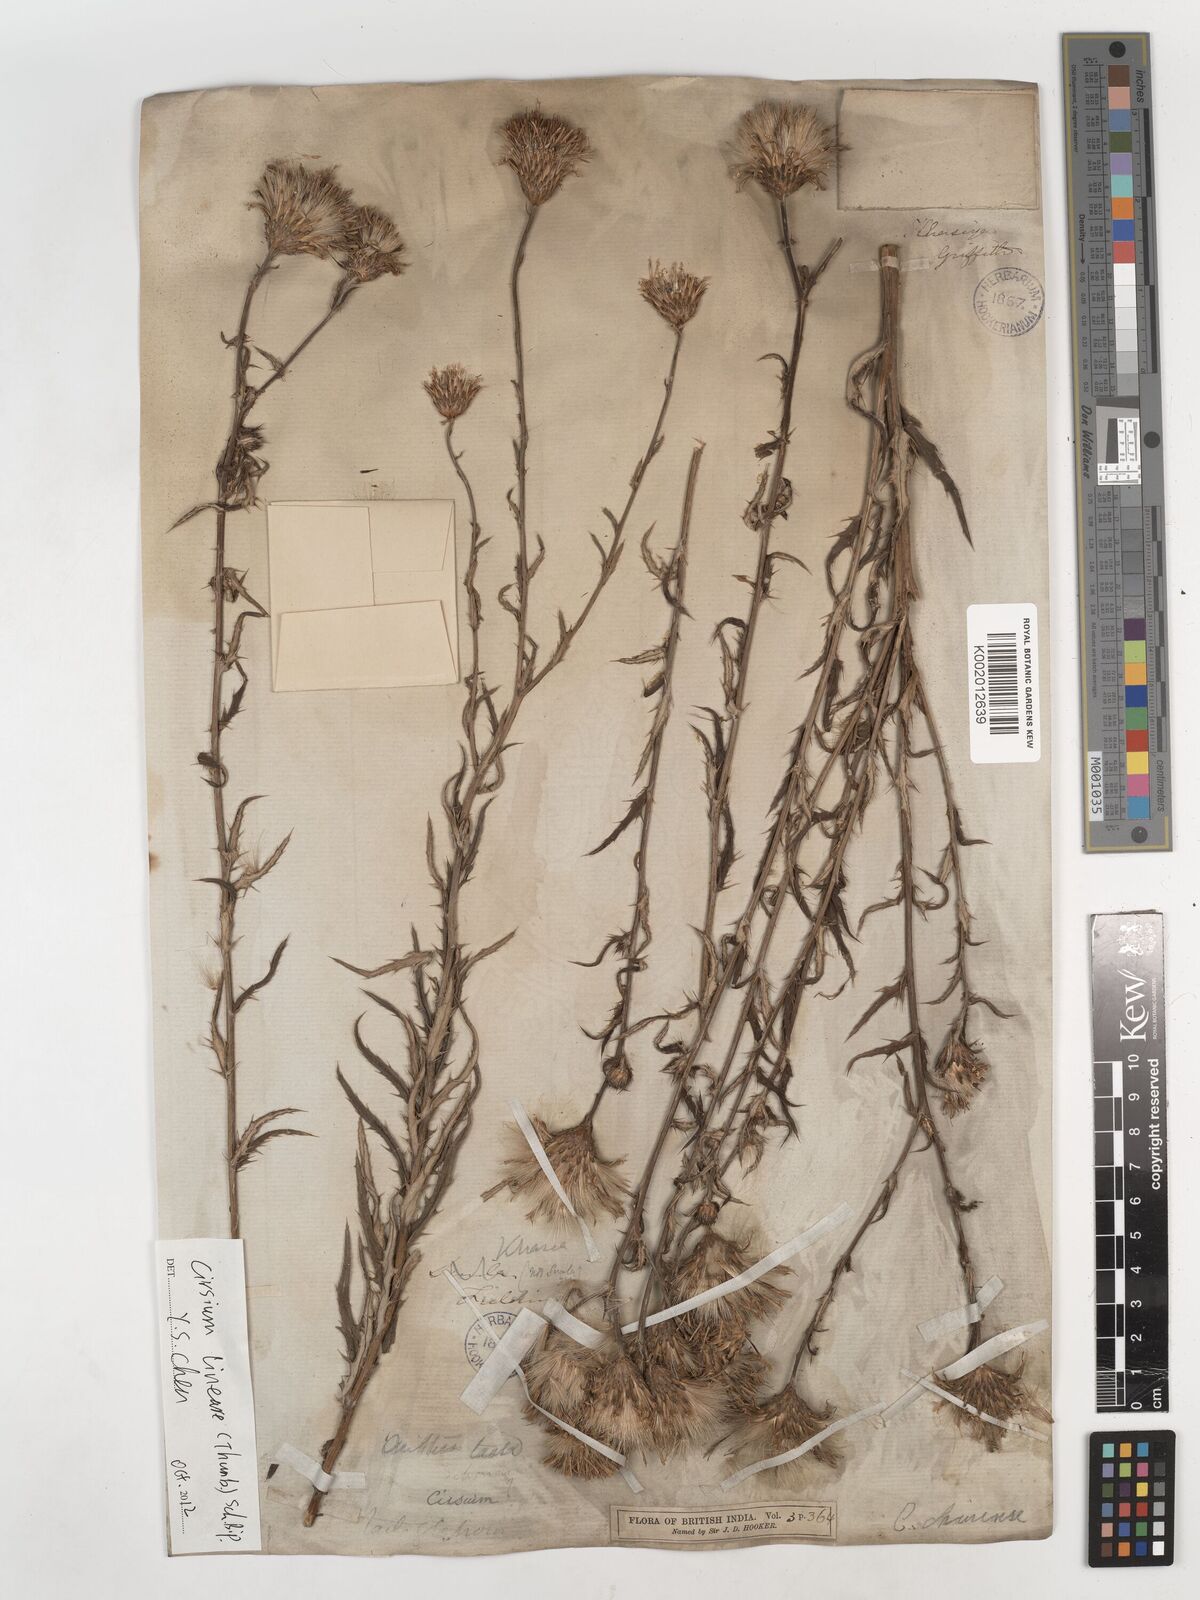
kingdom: Plantae
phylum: Tracheophyta
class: Magnoliopsida
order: Asterales
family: Asteraceae
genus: Cirsium
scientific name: Cirsium chinense
